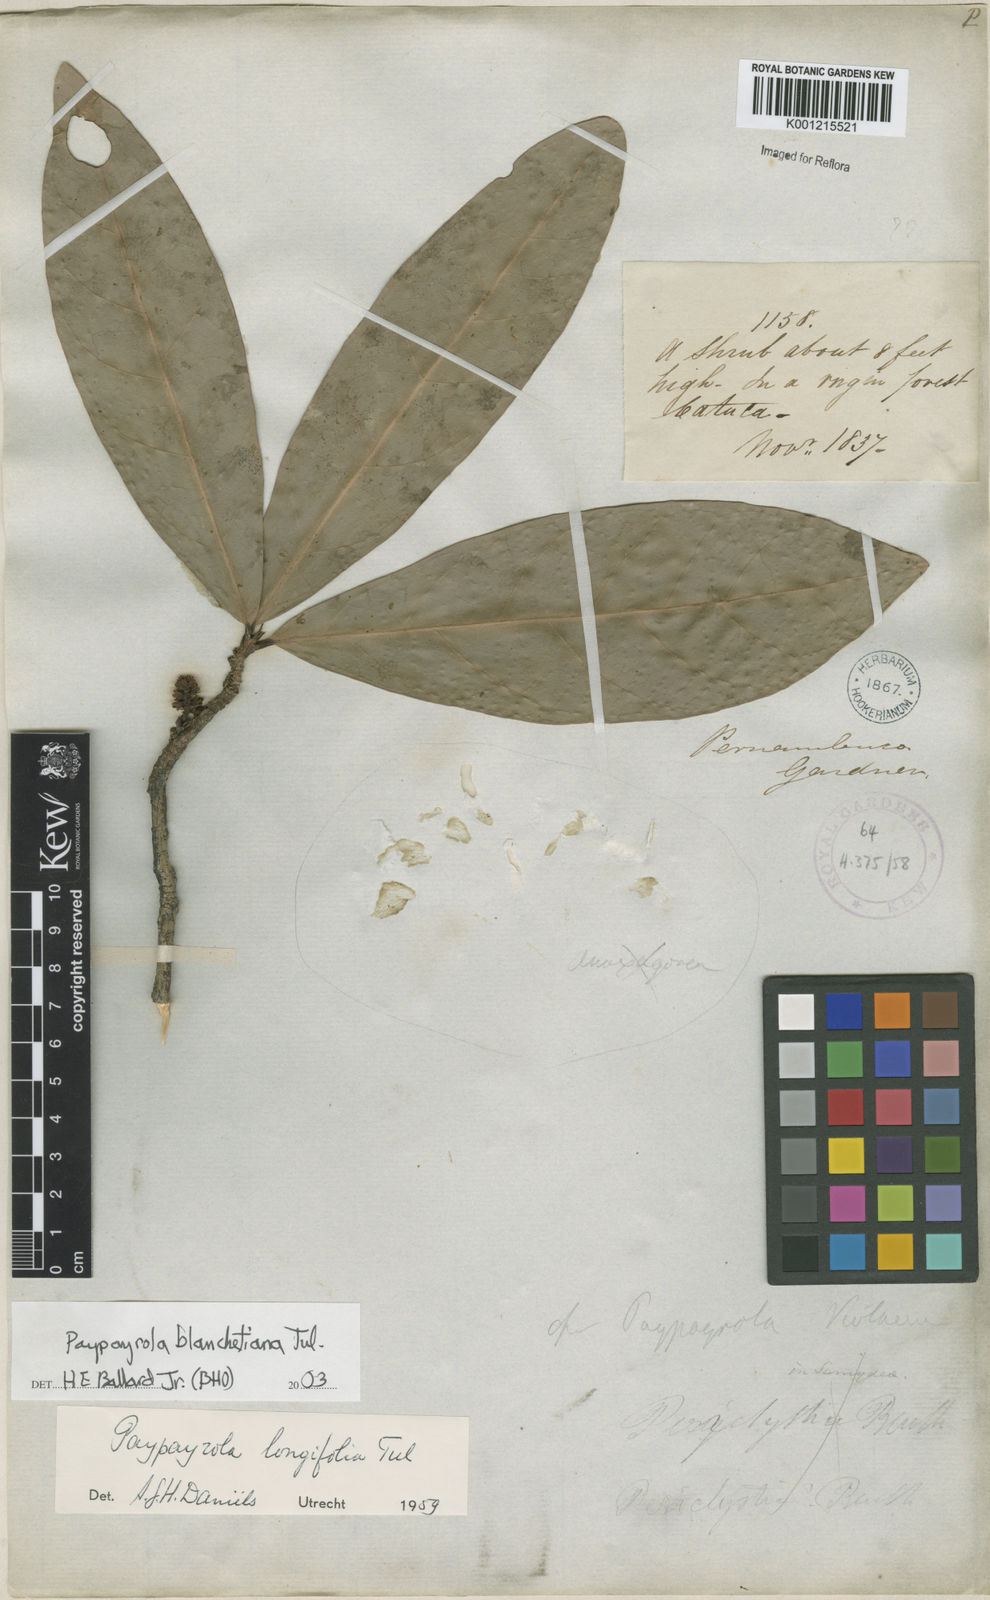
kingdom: Plantae
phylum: Tracheophyta
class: Magnoliopsida
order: Malpighiales
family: Violaceae
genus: Paypayrola
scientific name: Paypayrola blanchetiana
